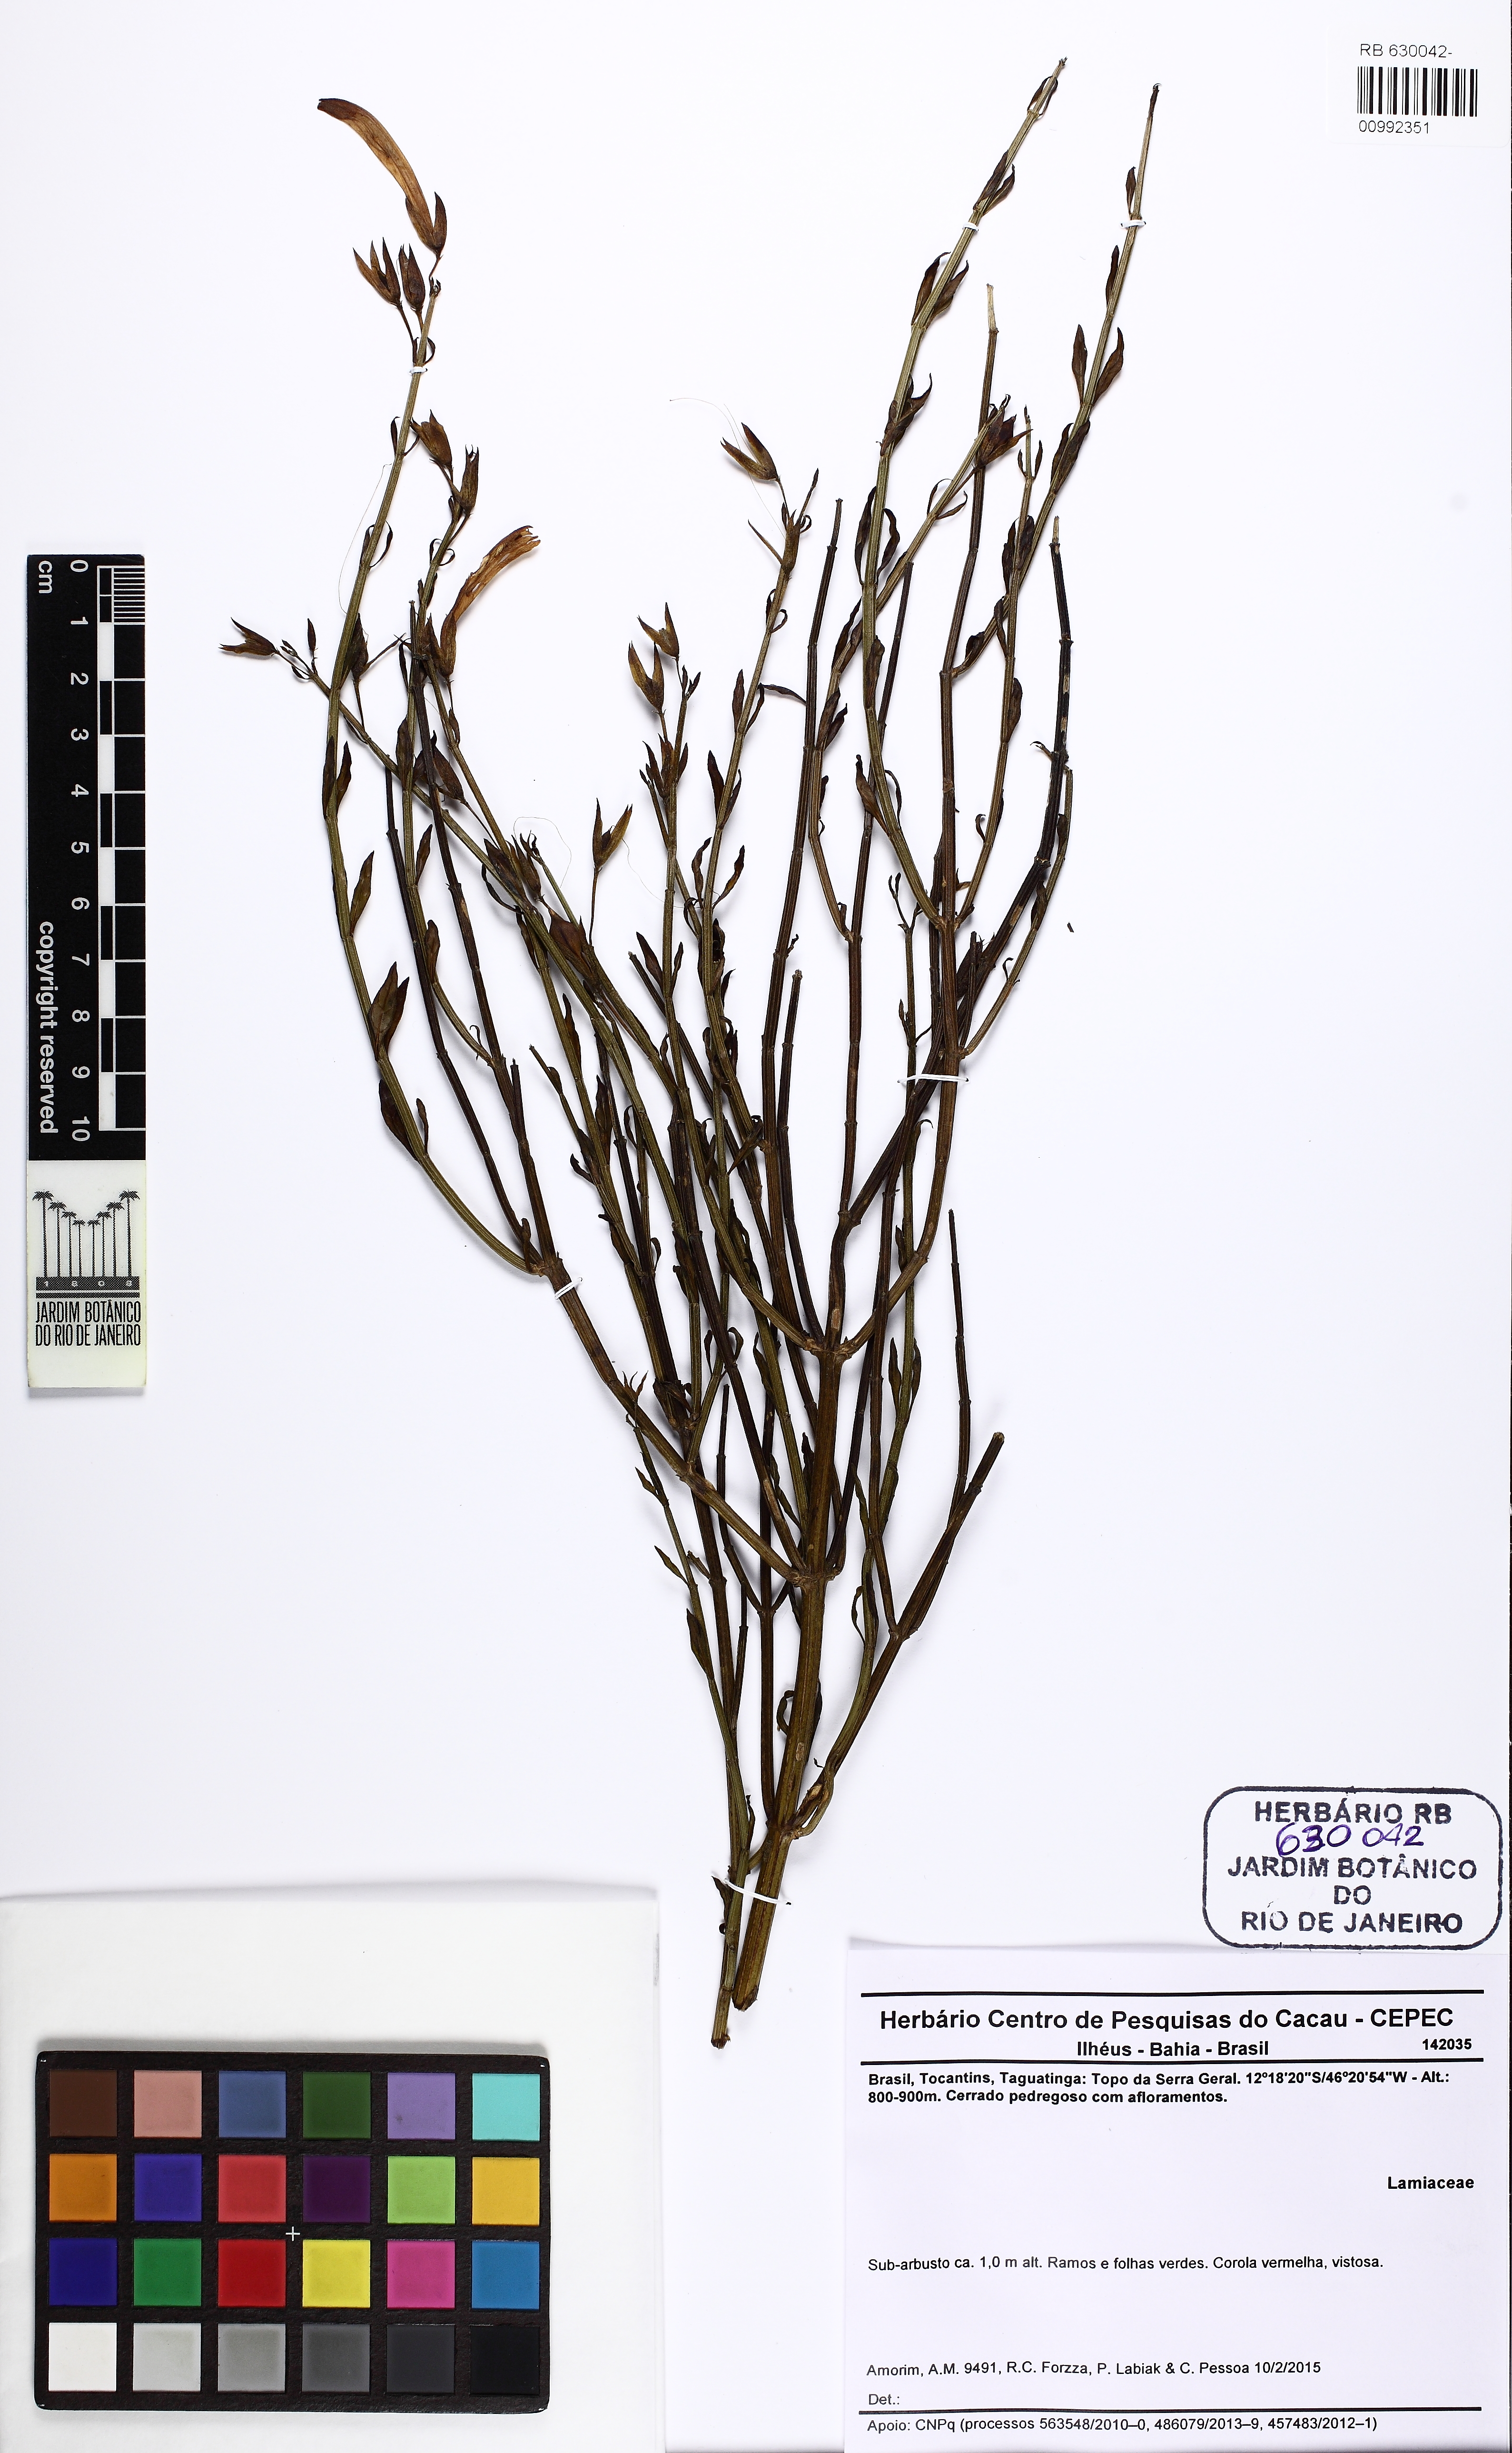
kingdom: Plantae
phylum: Tracheophyta
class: Magnoliopsida
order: Lamiales
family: Acanthaceae
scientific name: Acanthaceae
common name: Acanthaceae
